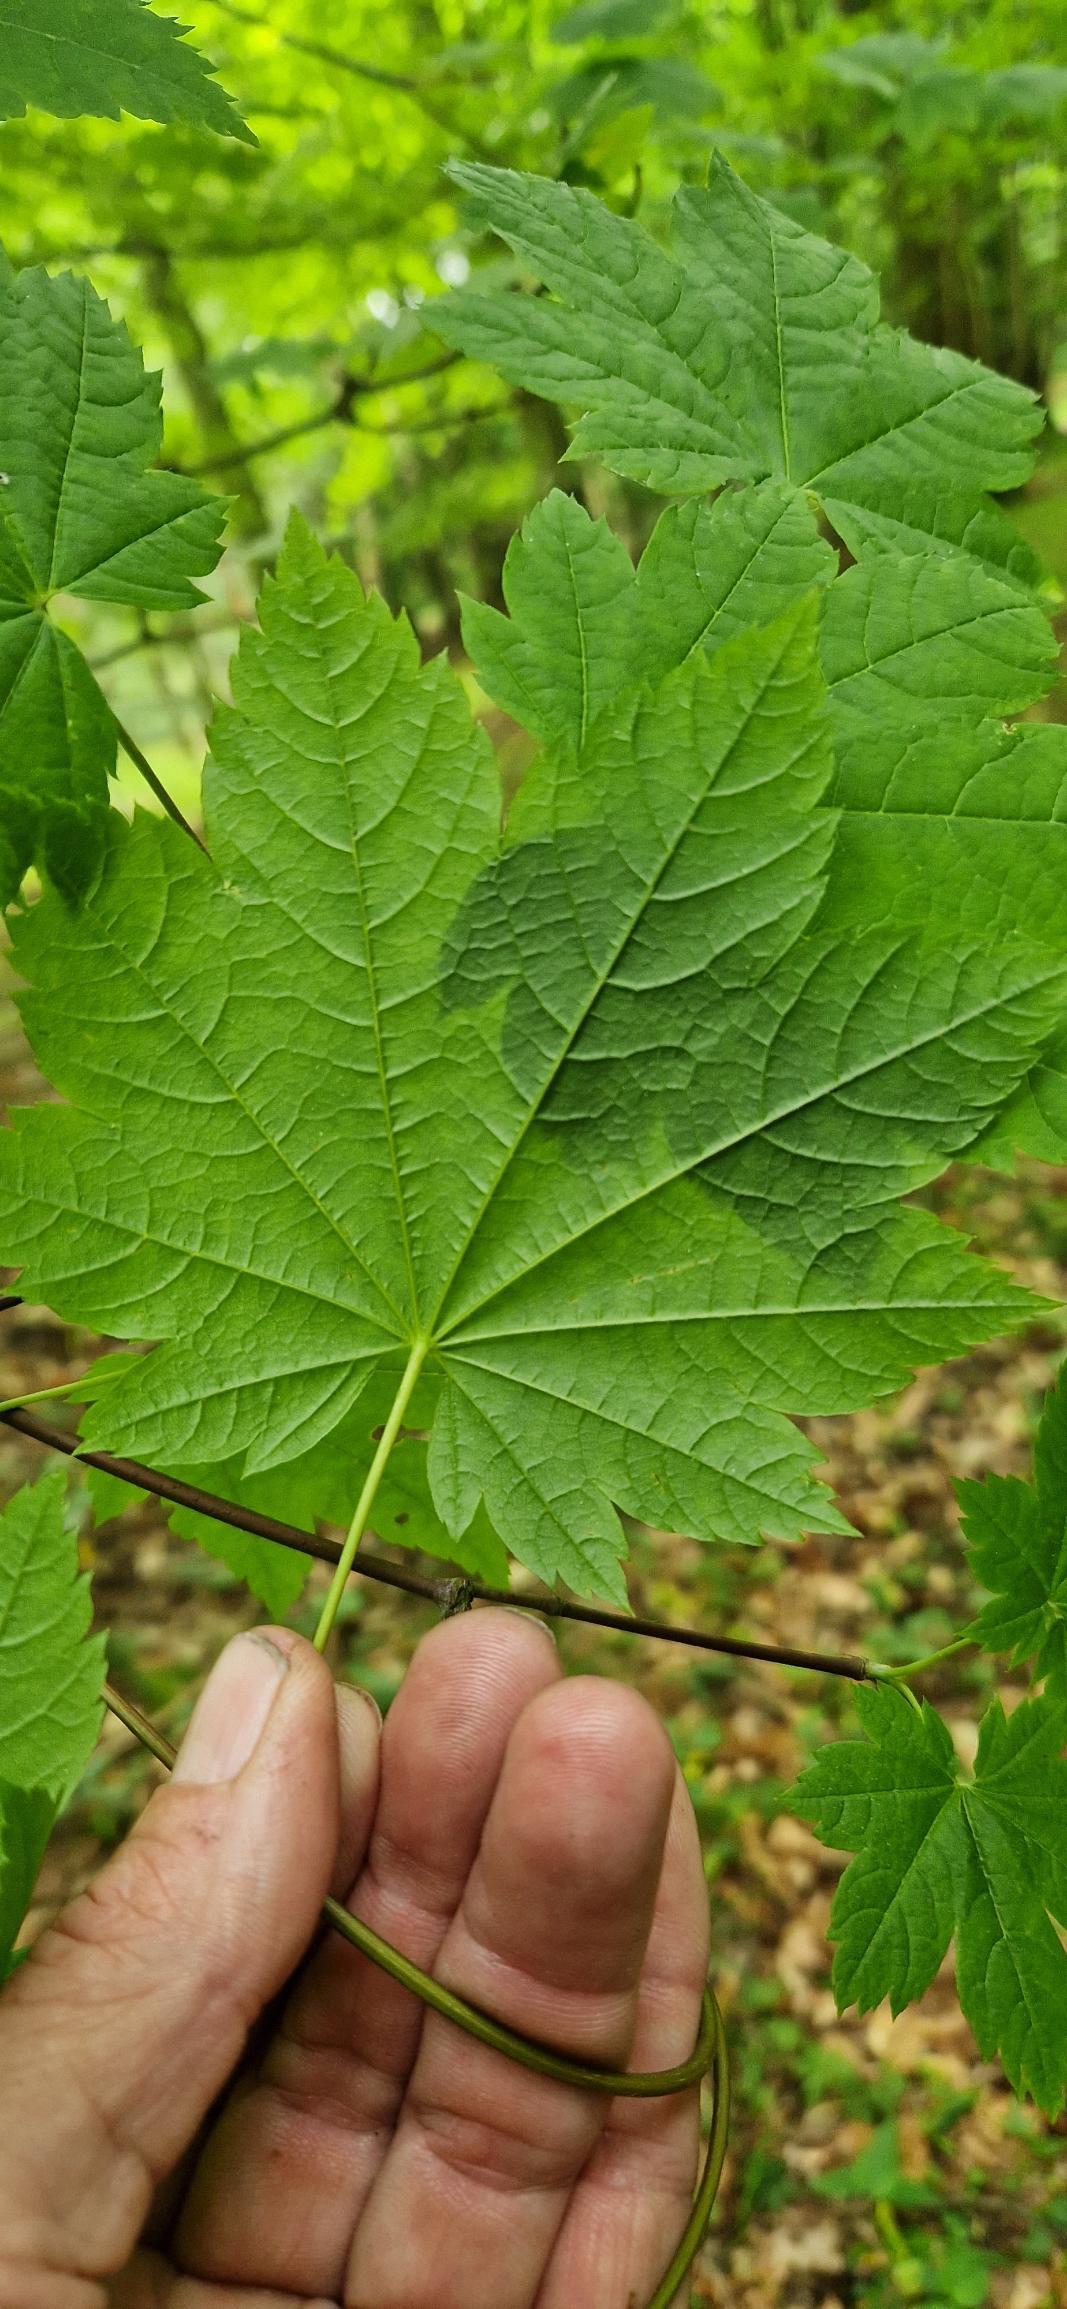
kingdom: Plantae
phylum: Tracheophyta
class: Magnoliopsida
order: Sapindales
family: Sapindaceae
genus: Acer
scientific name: Acer circinatum
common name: Vin-løn
